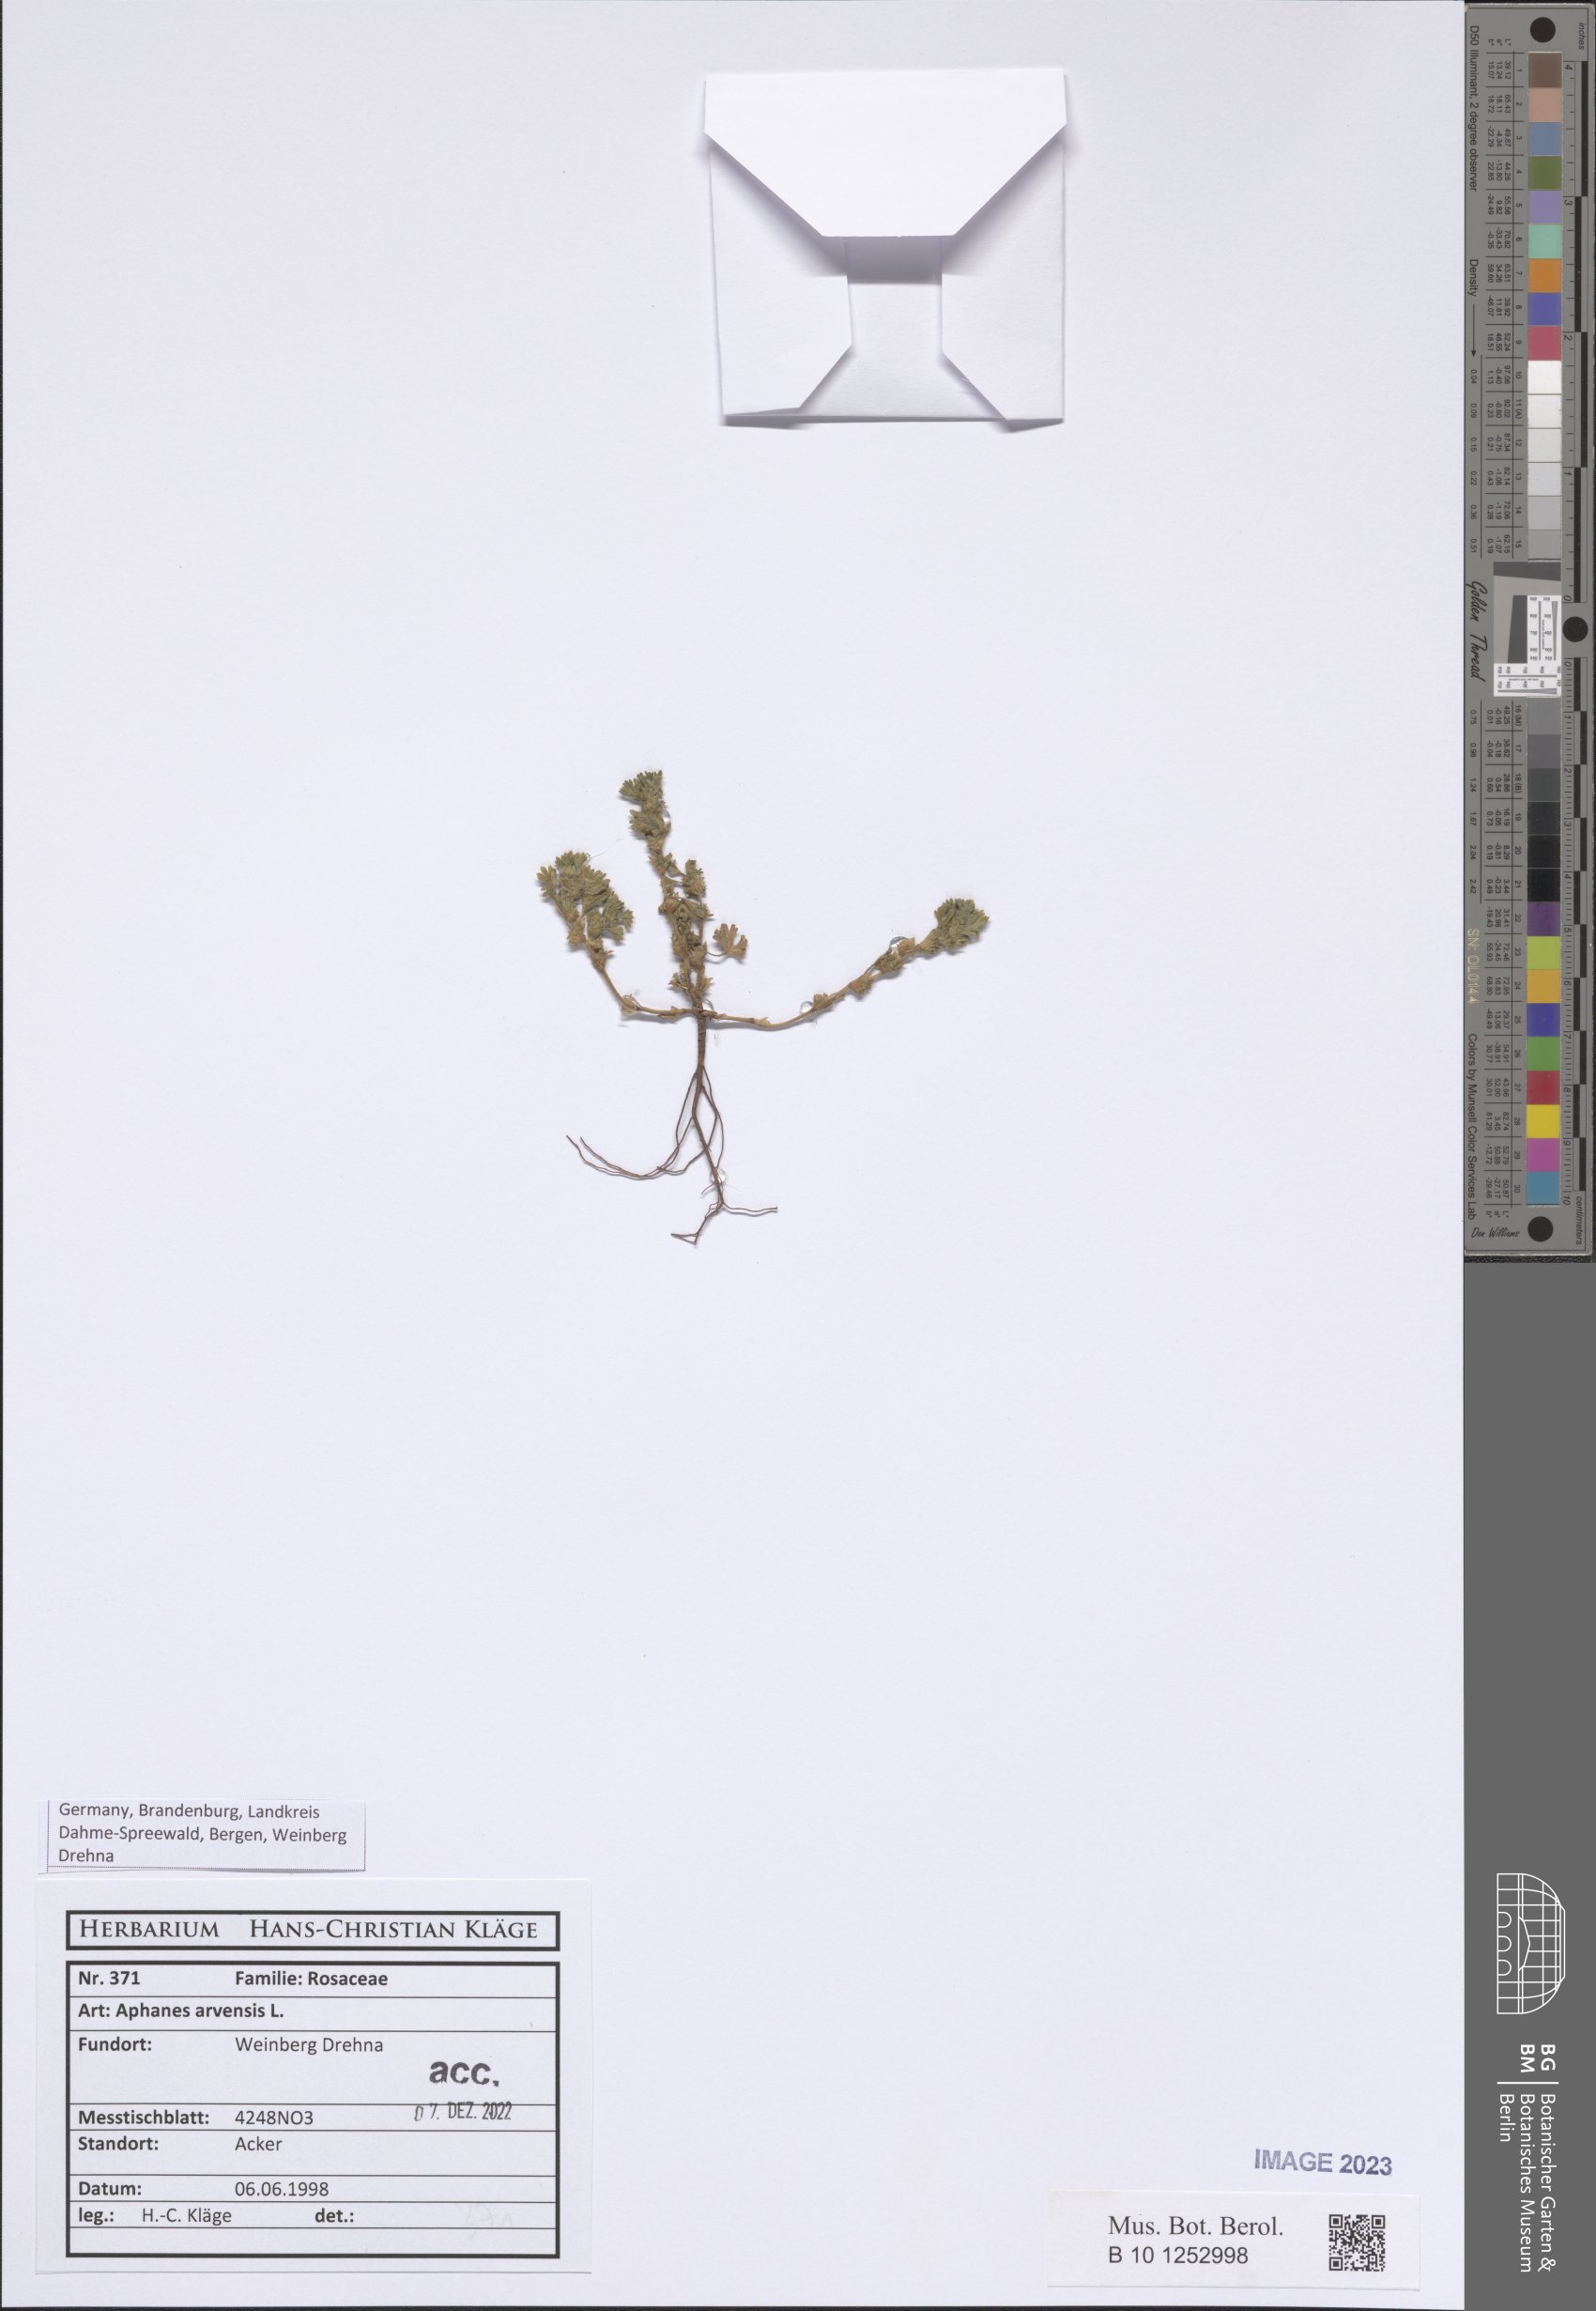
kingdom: Plantae
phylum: Tracheophyta
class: Magnoliopsida
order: Rosales
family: Rosaceae
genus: Aphanes
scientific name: Aphanes arvensis
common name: Parsley-piert
